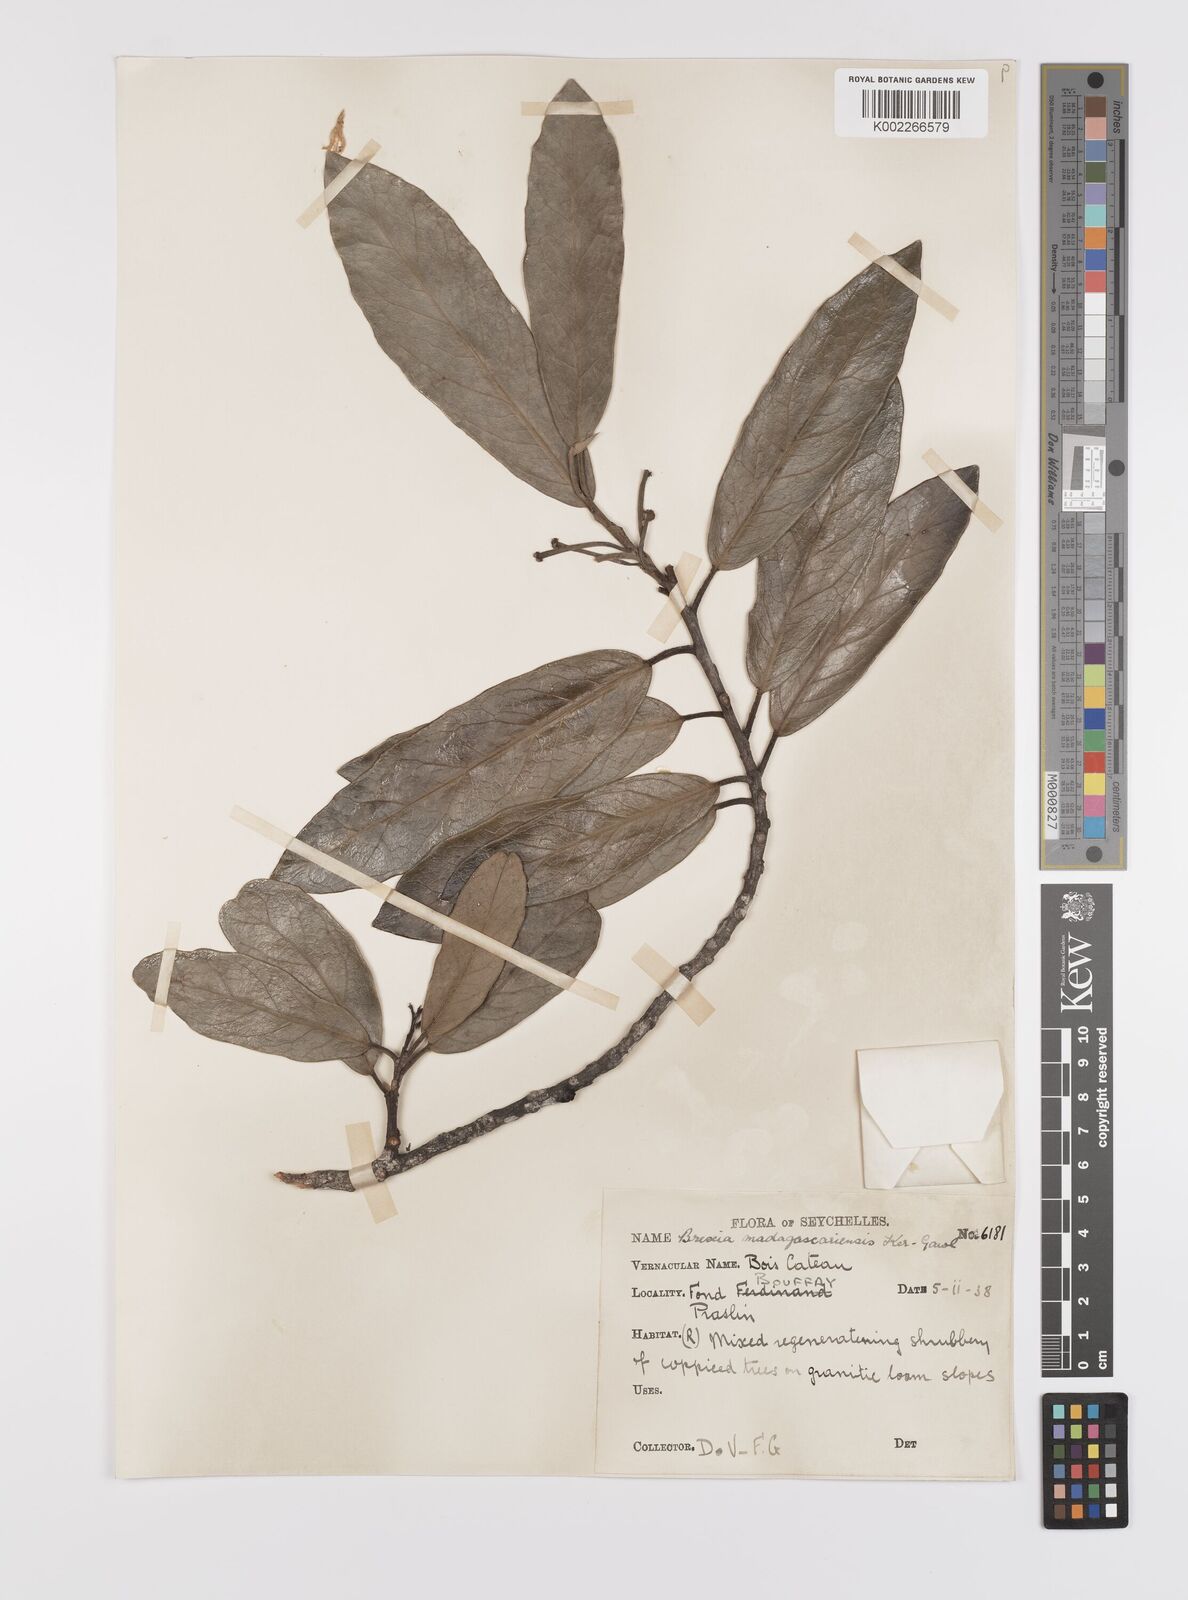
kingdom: Plantae
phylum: Tracheophyta
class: Magnoliopsida
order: Celastrales
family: Celastraceae
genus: Brexia
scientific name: Brexia madagascariensis
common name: Brexia
